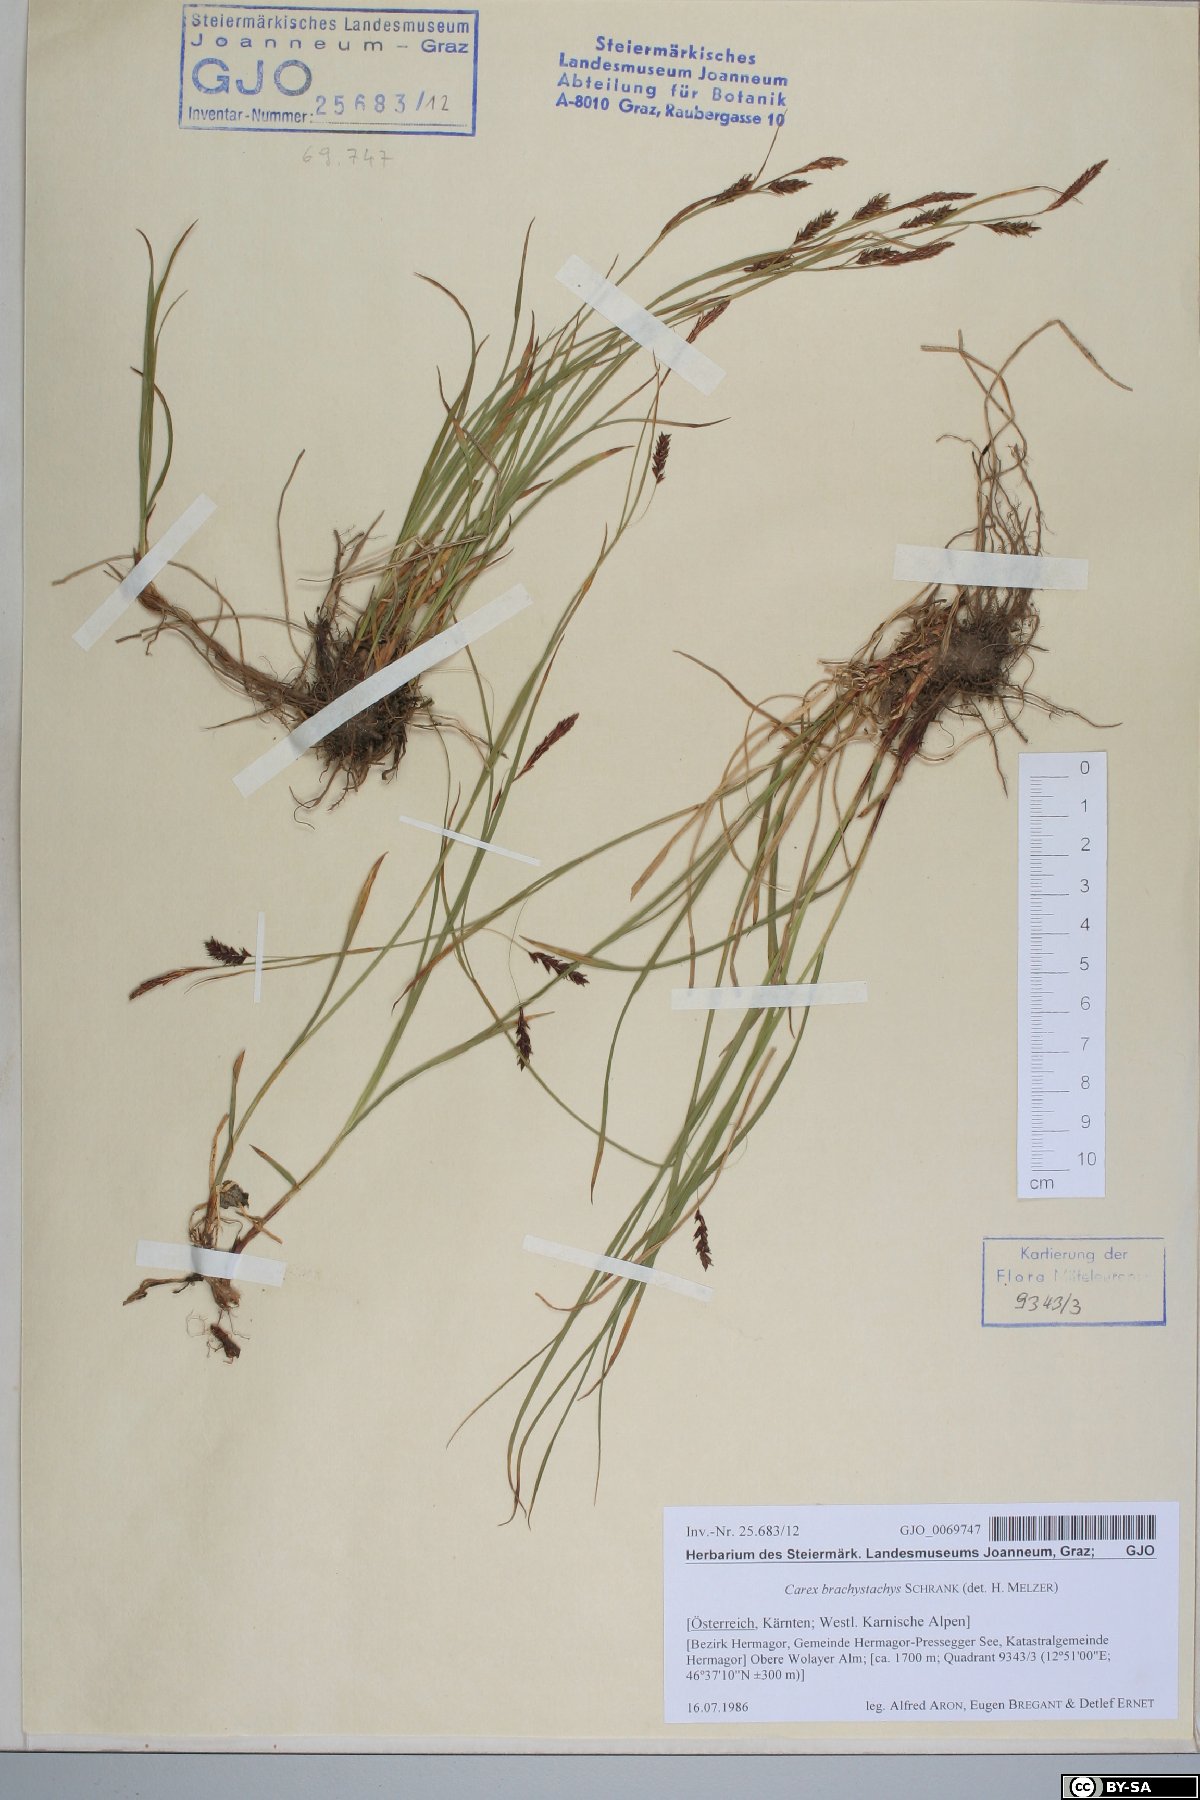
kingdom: Plantae
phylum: Tracheophyta
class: Liliopsida
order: Poales
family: Cyperaceae
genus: Carex
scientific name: Carex brachystachys
